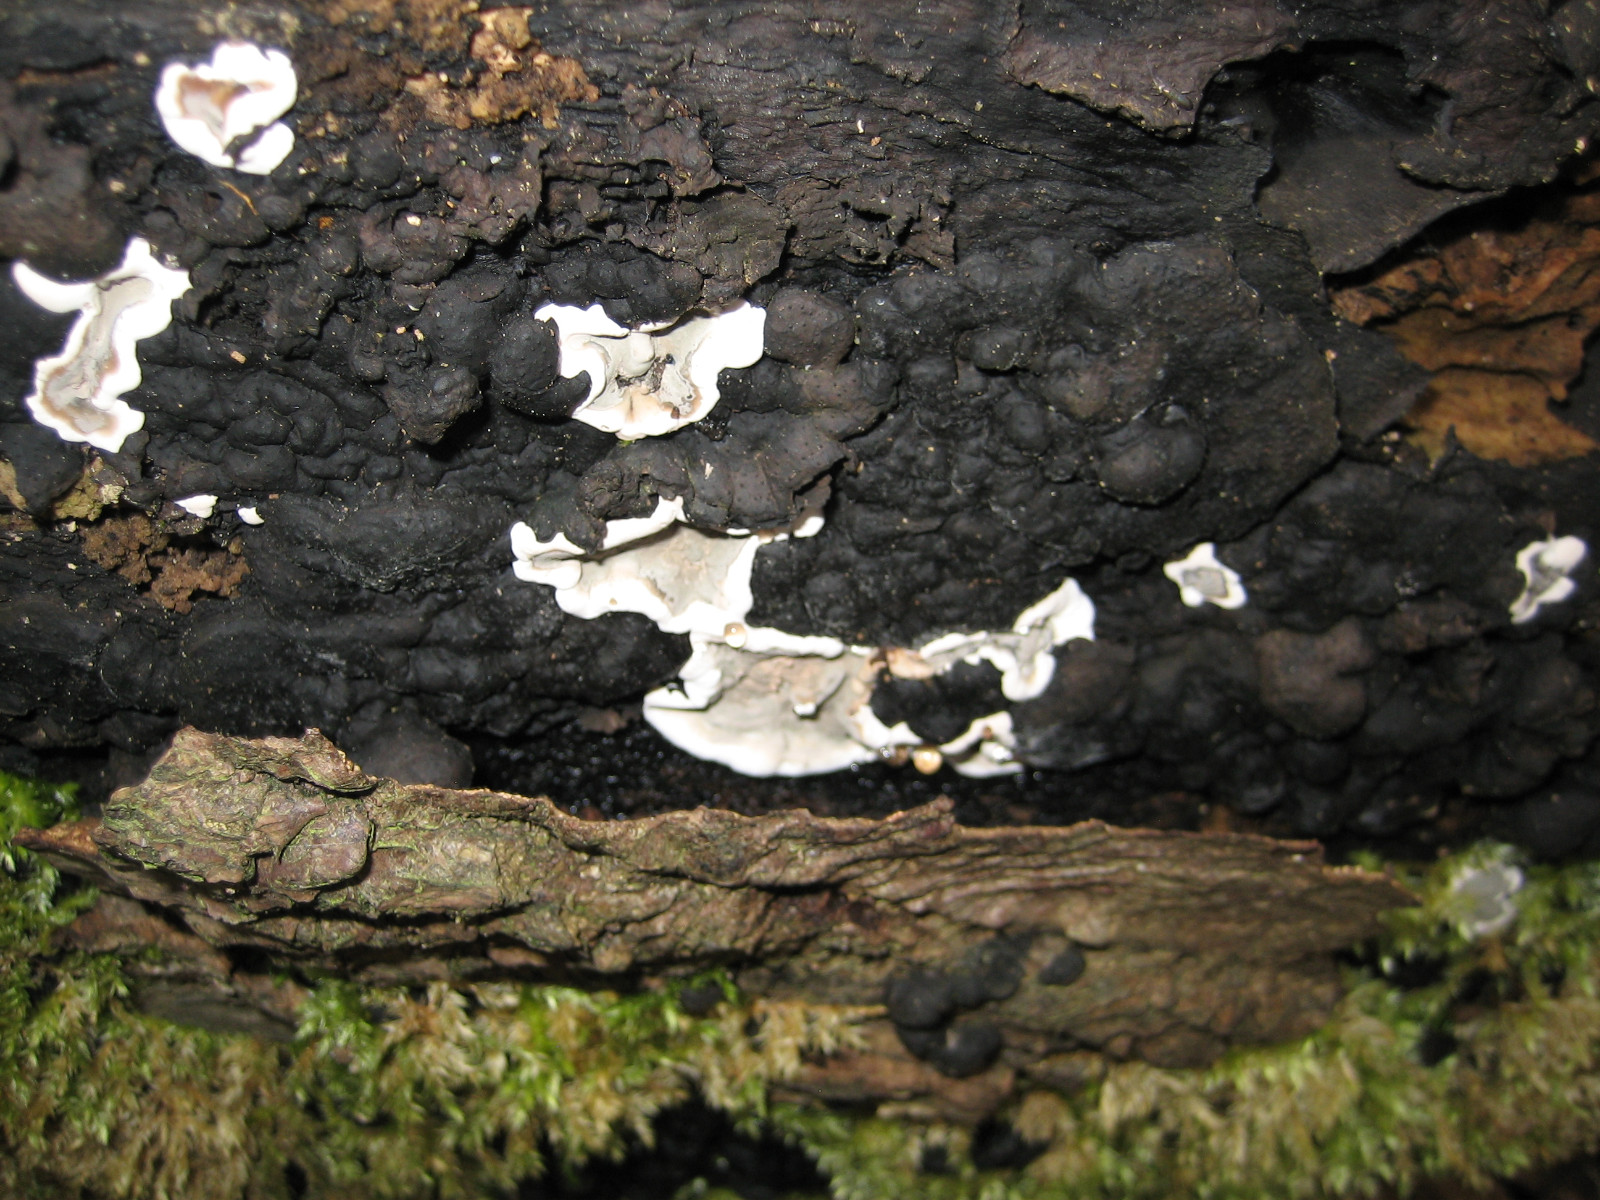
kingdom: Fungi
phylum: Ascomycota
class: Sordariomycetes
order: Xylariales
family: Xylariaceae
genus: Kretzschmaria
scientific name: Kretzschmaria deusta
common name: stor kulsvamp
